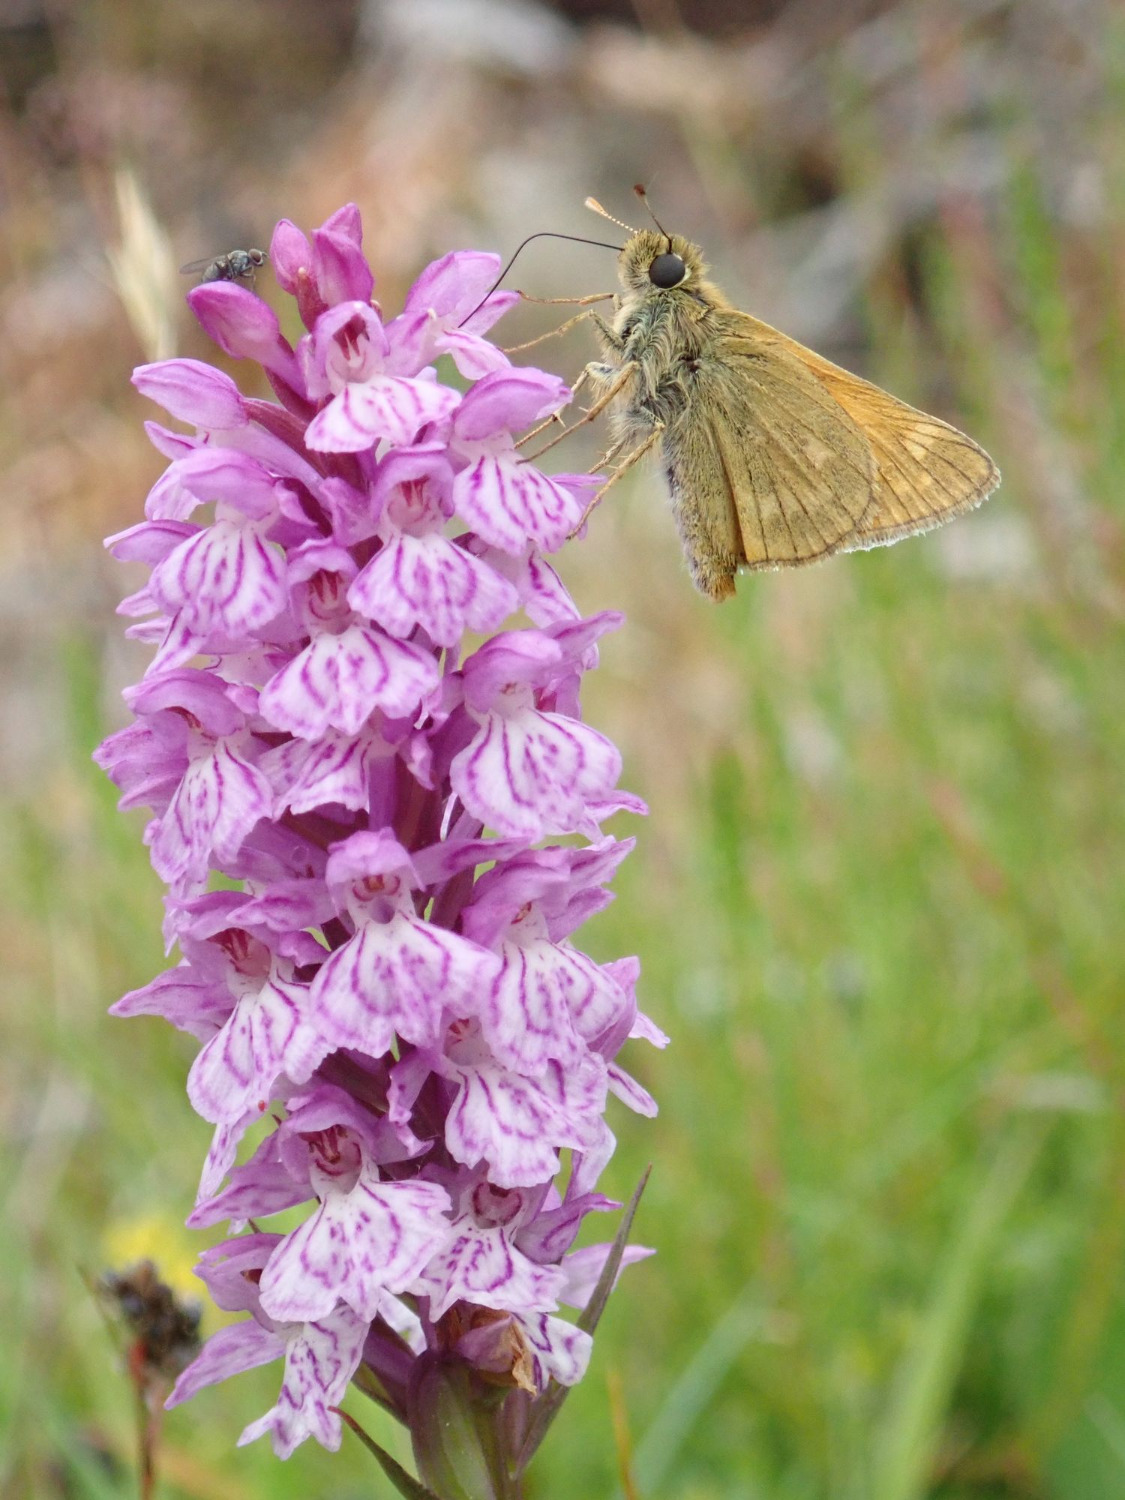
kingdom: Animalia
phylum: Arthropoda
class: Insecta
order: Lepidoptera
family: Hesperiidae
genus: Ochlodes
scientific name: Ochlodes venata
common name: Stor bredpande
